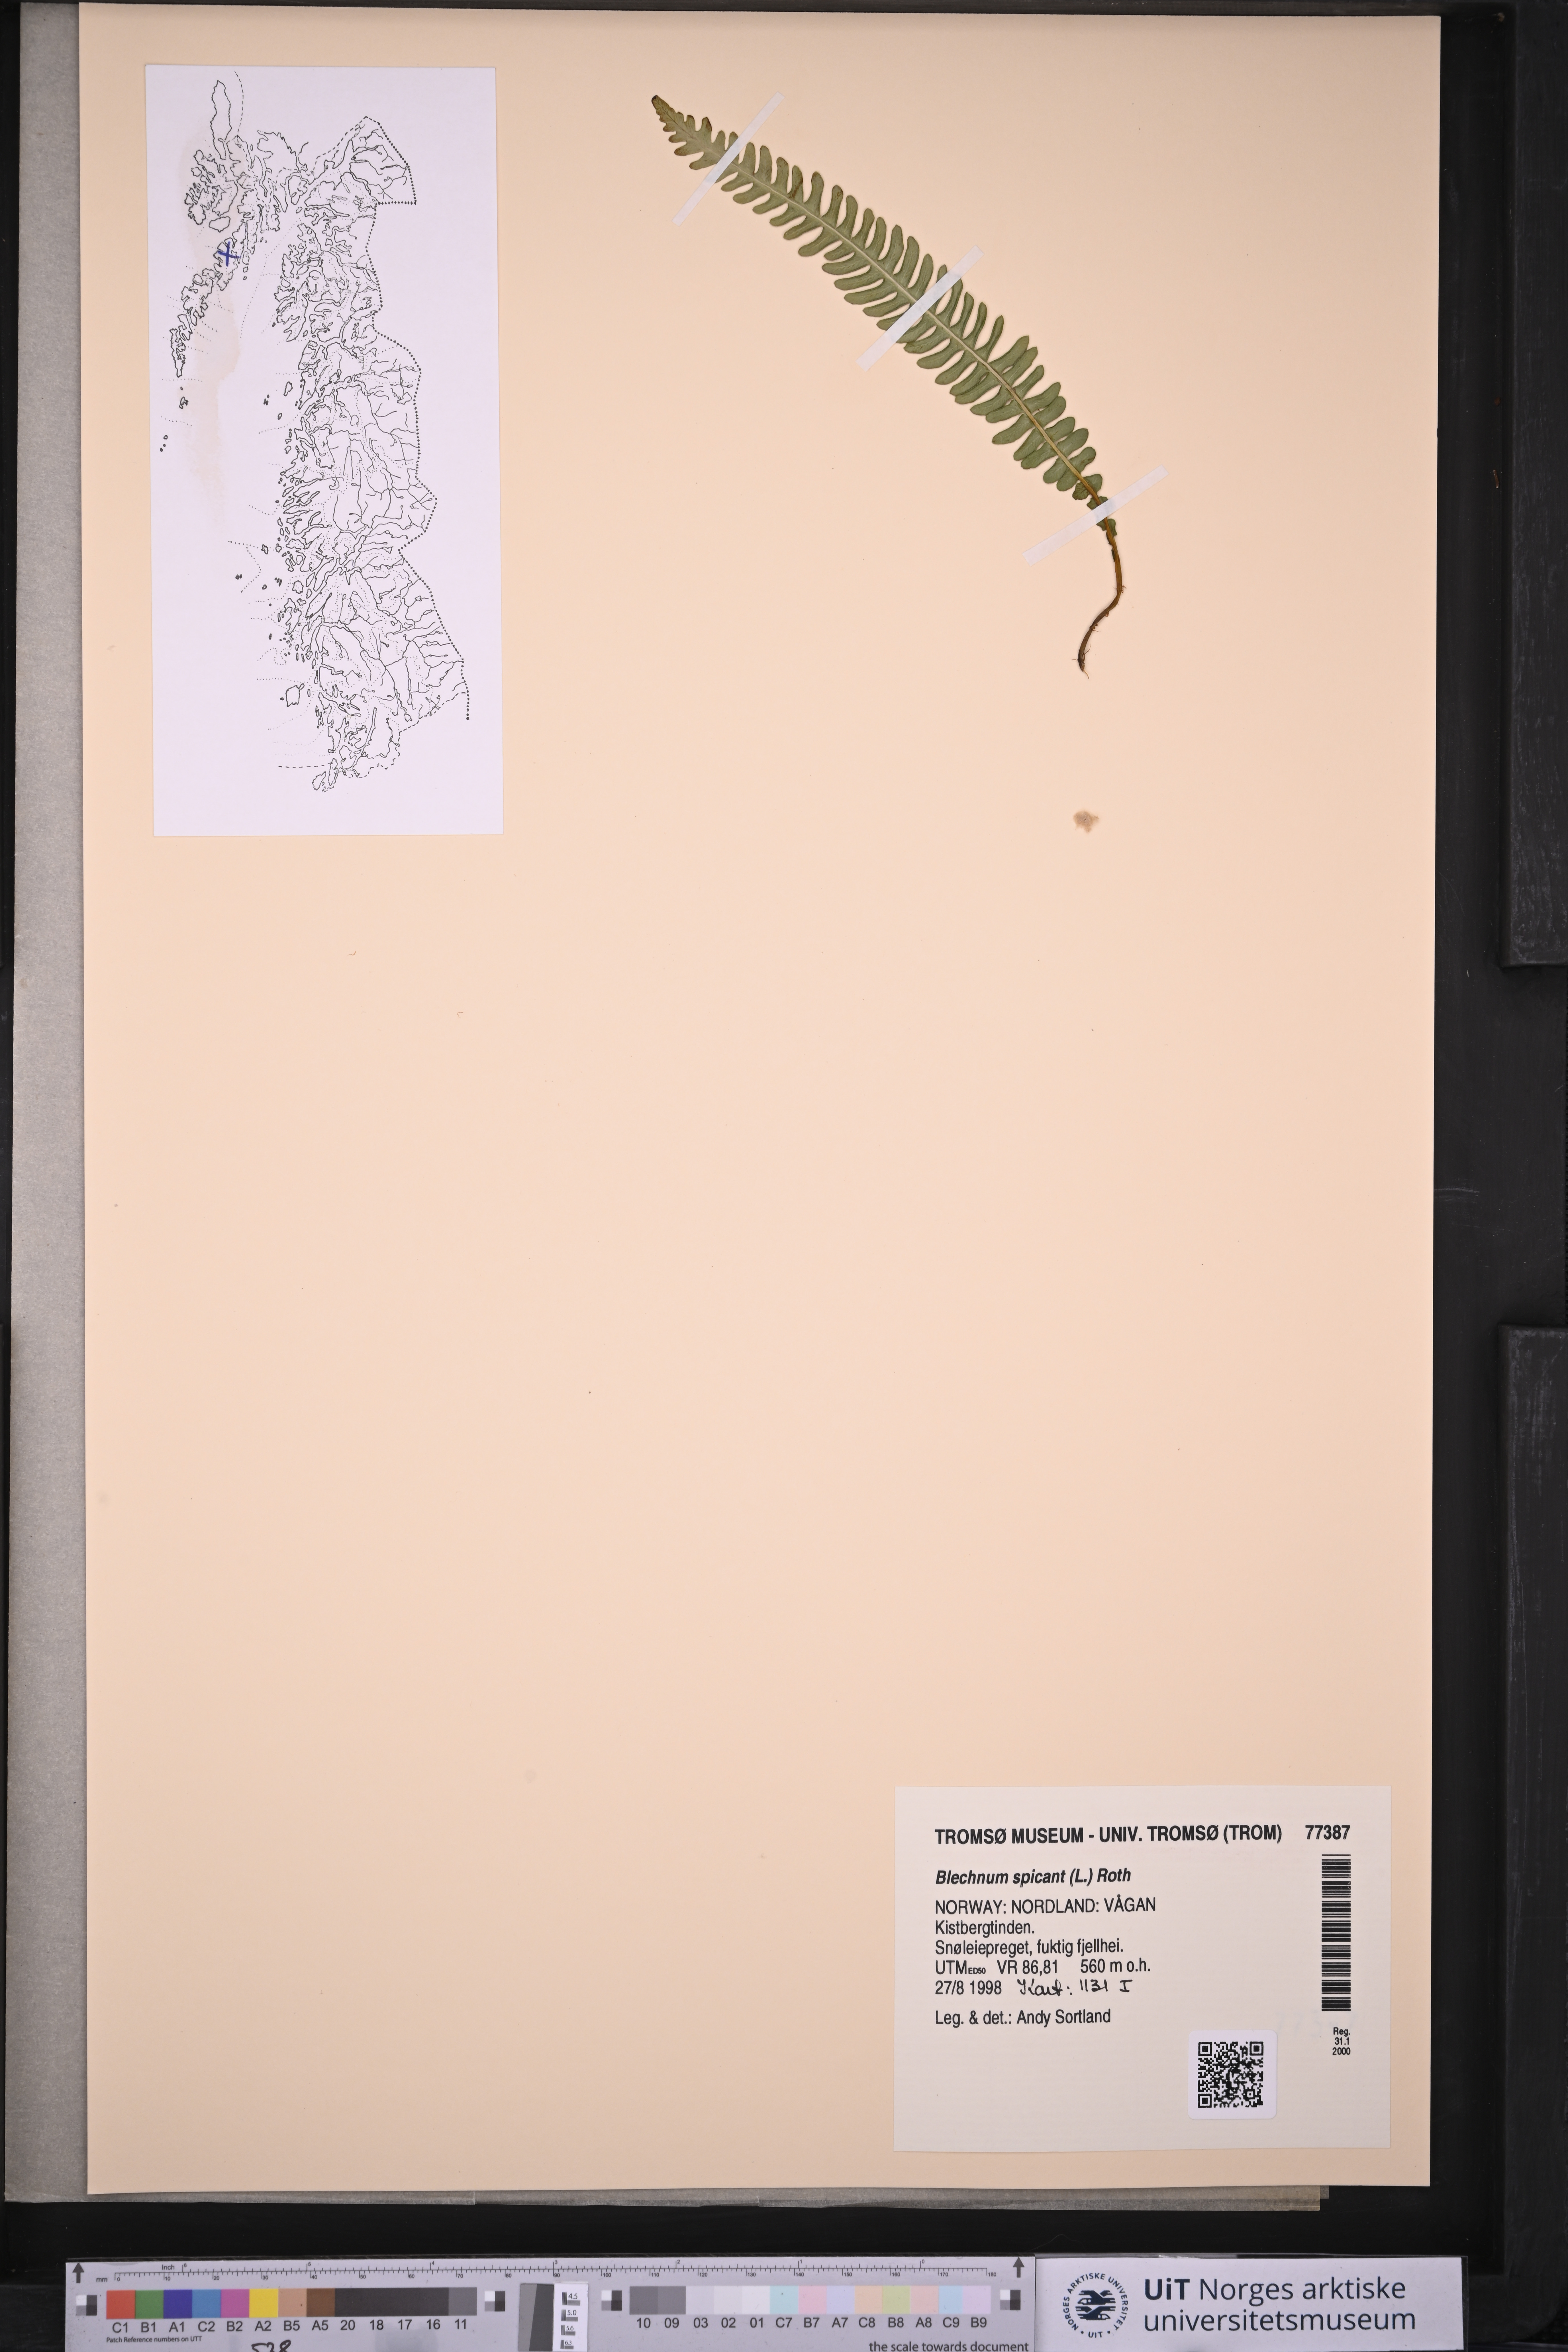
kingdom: Plantae
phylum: Tracheophyta
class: Polypodiopsida
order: Polypodiales
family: Blechnaceae
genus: Struthiopteris
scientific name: Struthiopteris spicant
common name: Deer fern
